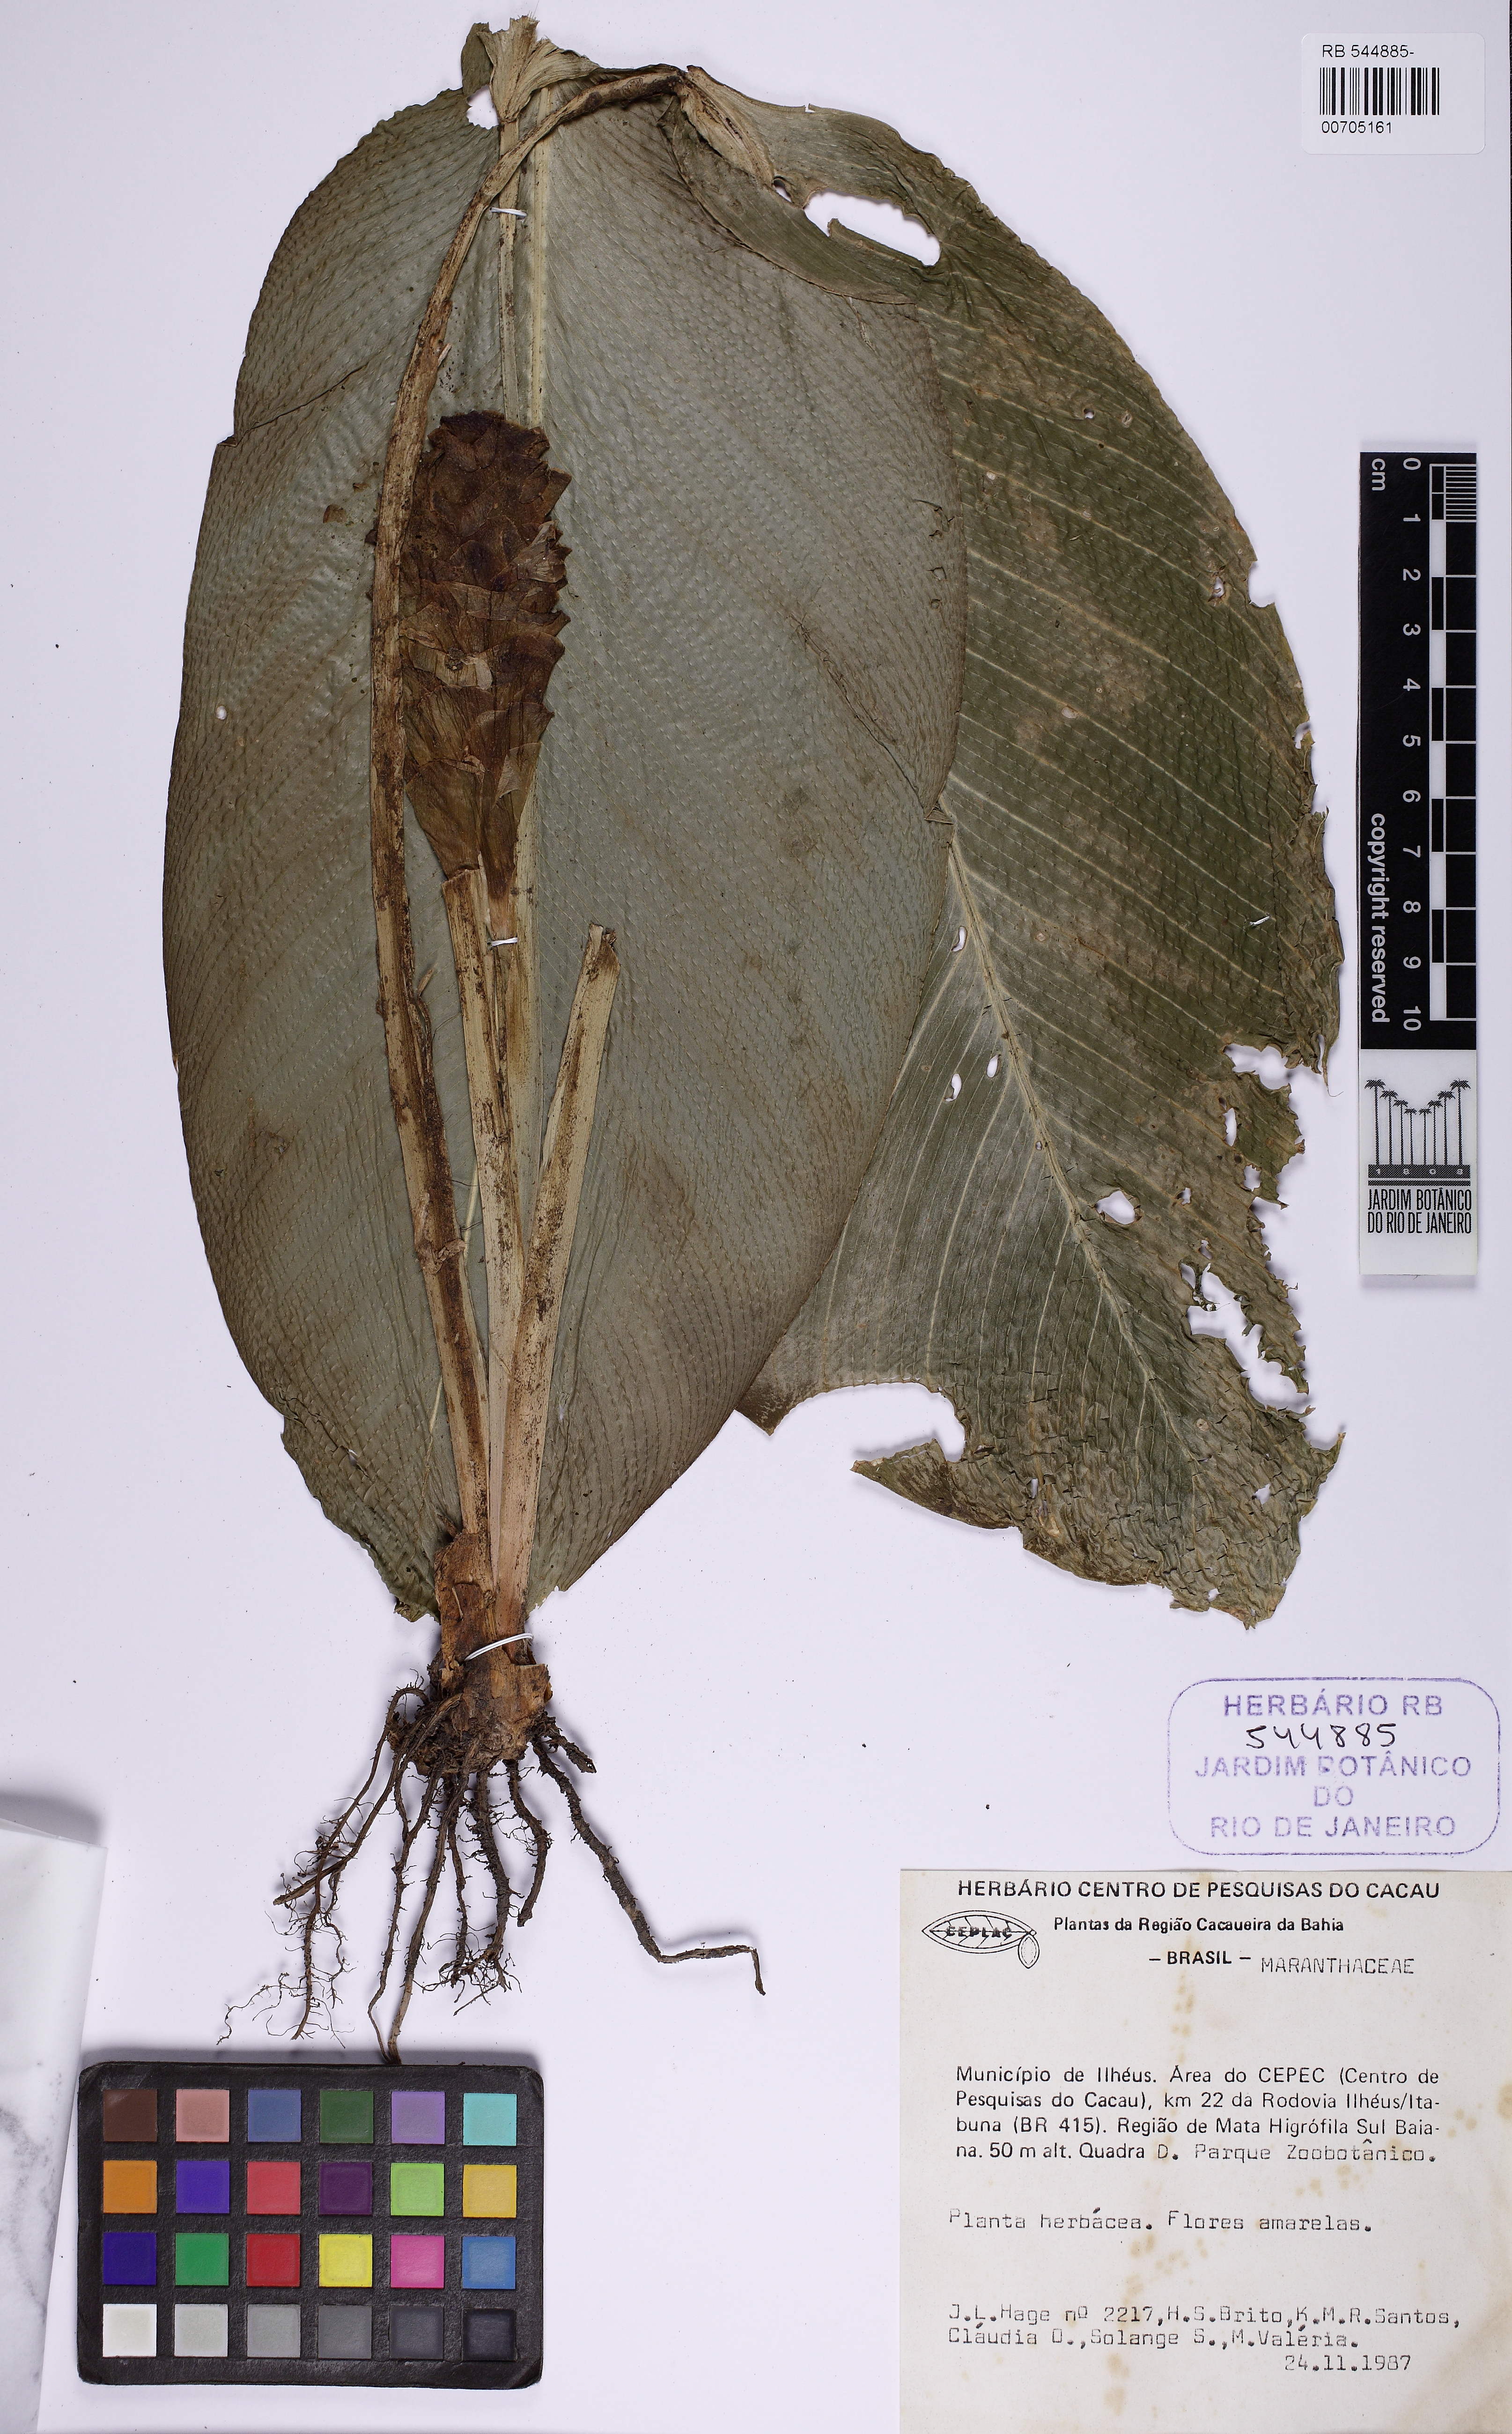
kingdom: Plantae
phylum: Tracheophyta
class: Liliopsida
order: Zingiberales
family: Marantaceae
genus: Goeppertia
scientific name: Goeppertia cylindrica
